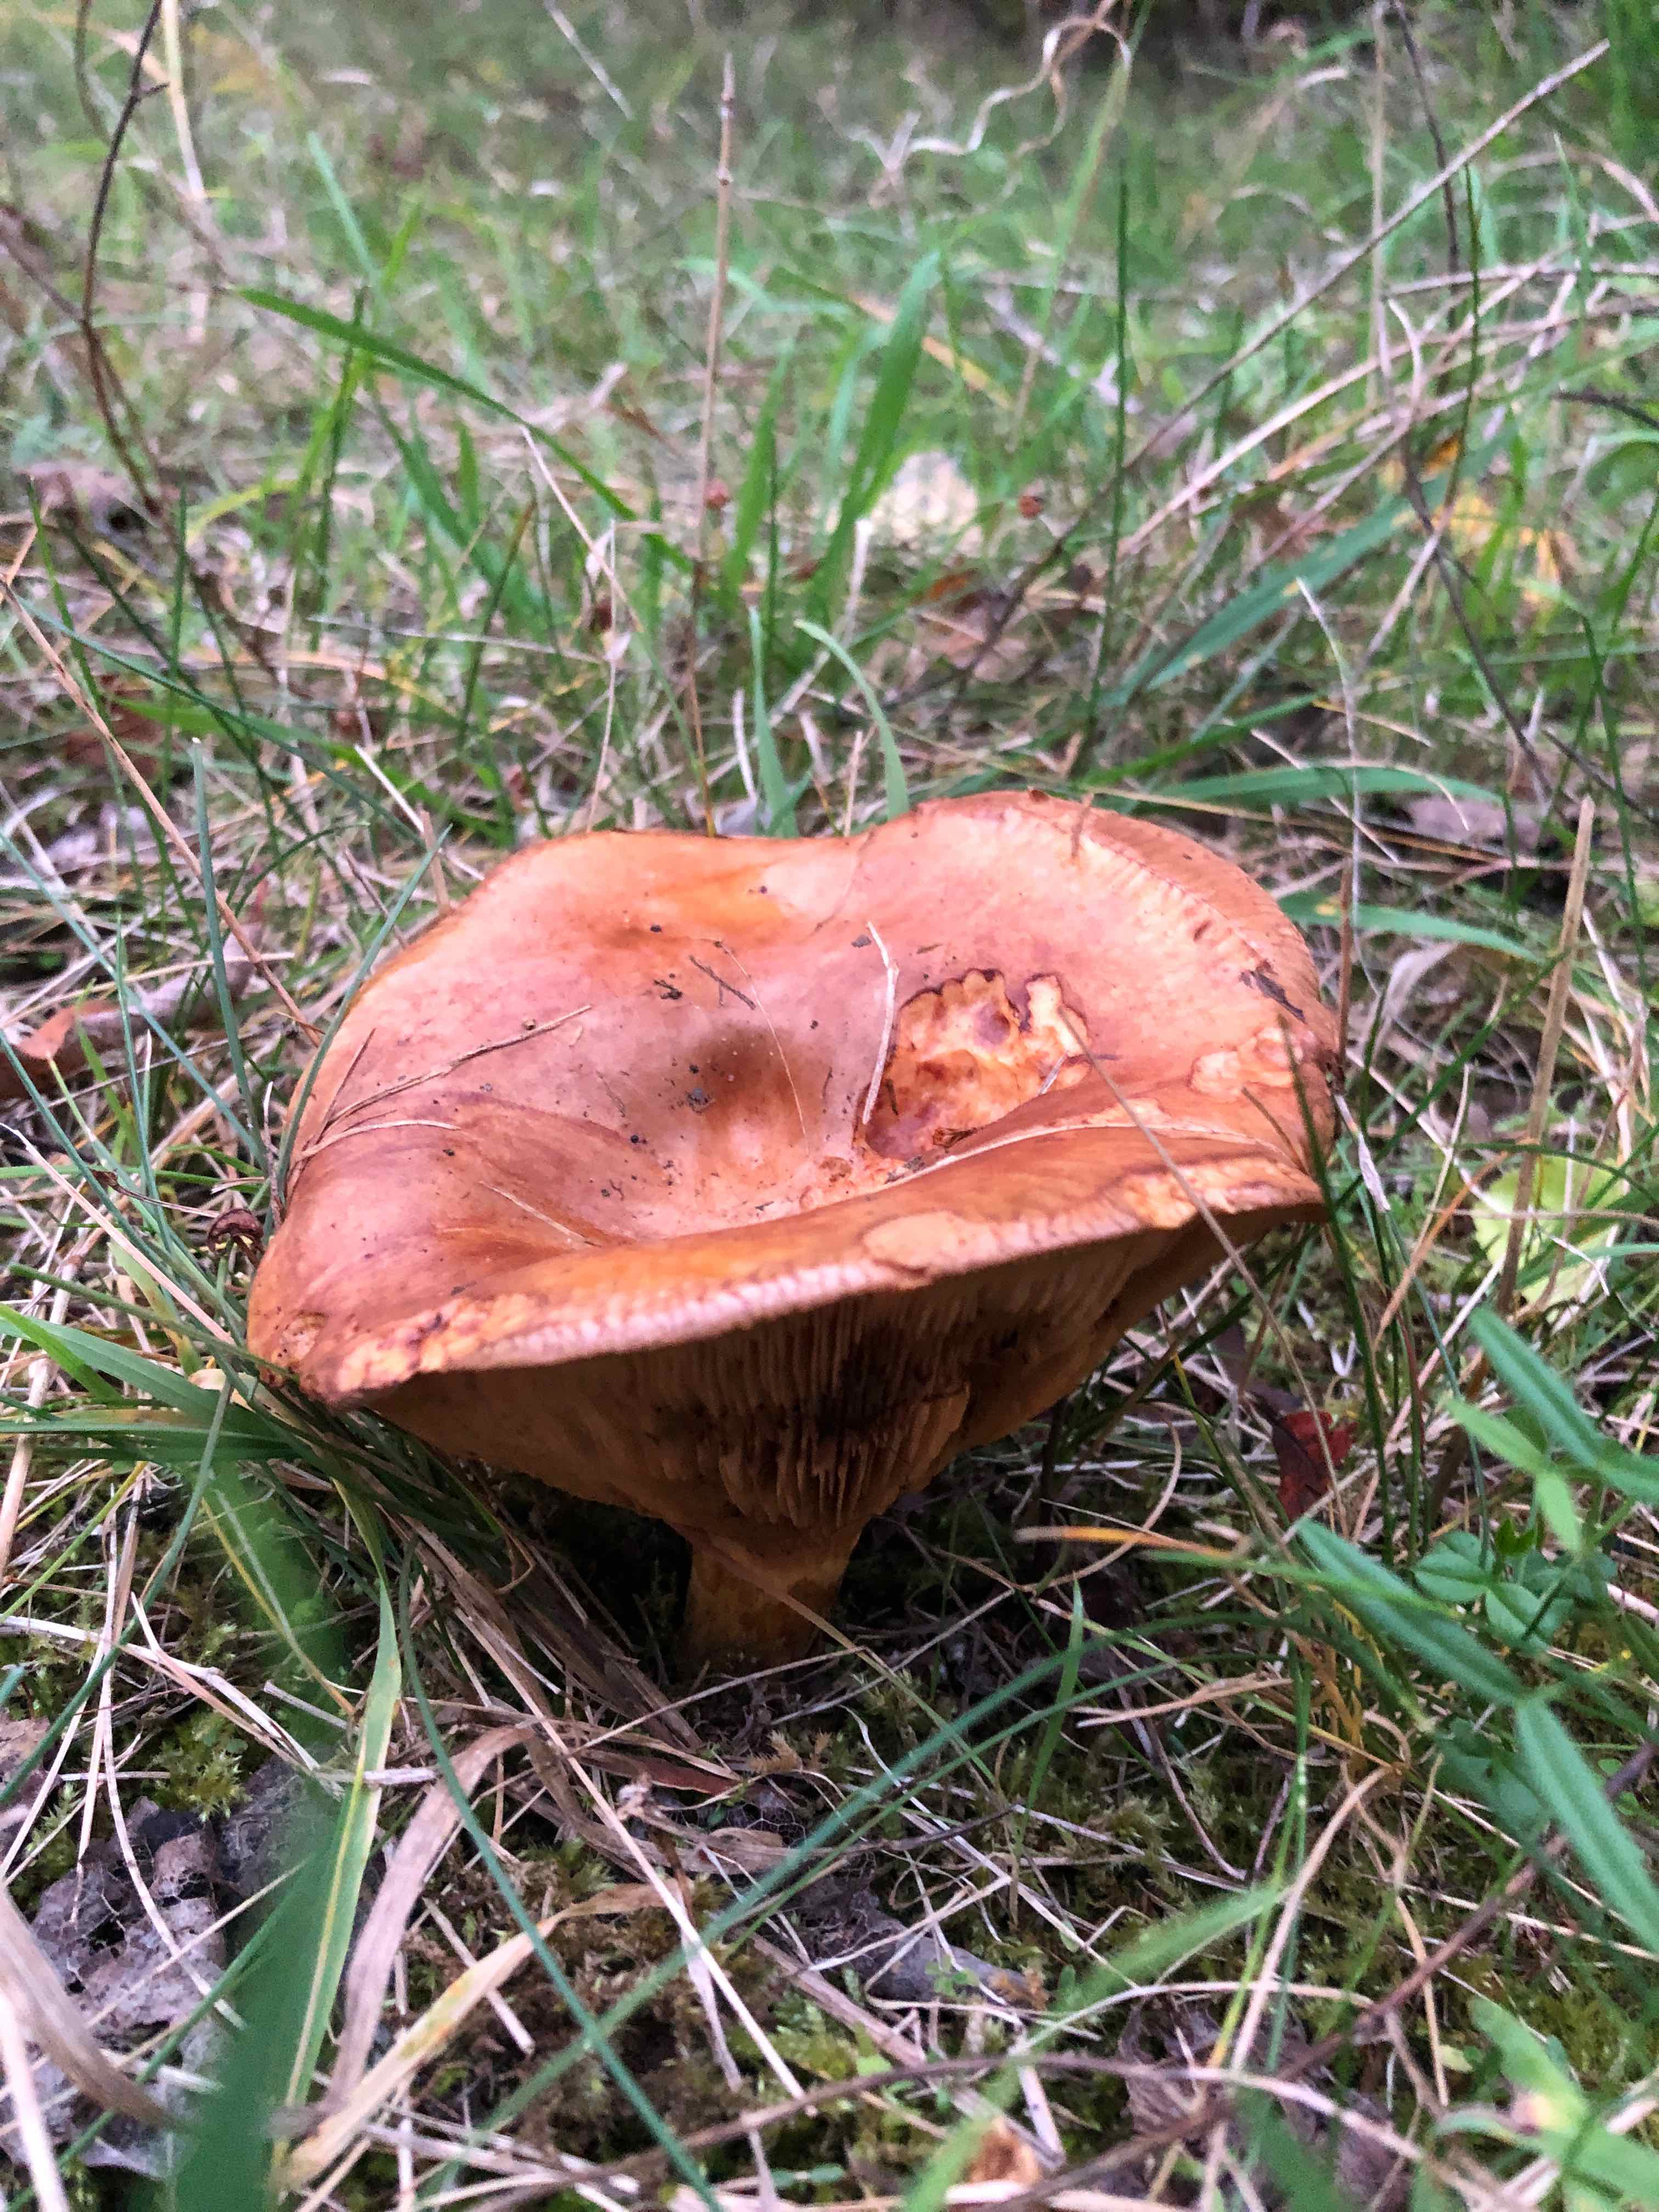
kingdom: Fungi
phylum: Basidiomycota
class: Agaricomycetes
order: Boletales
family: Paxillaceae
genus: Paxillus
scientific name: Paxillus
